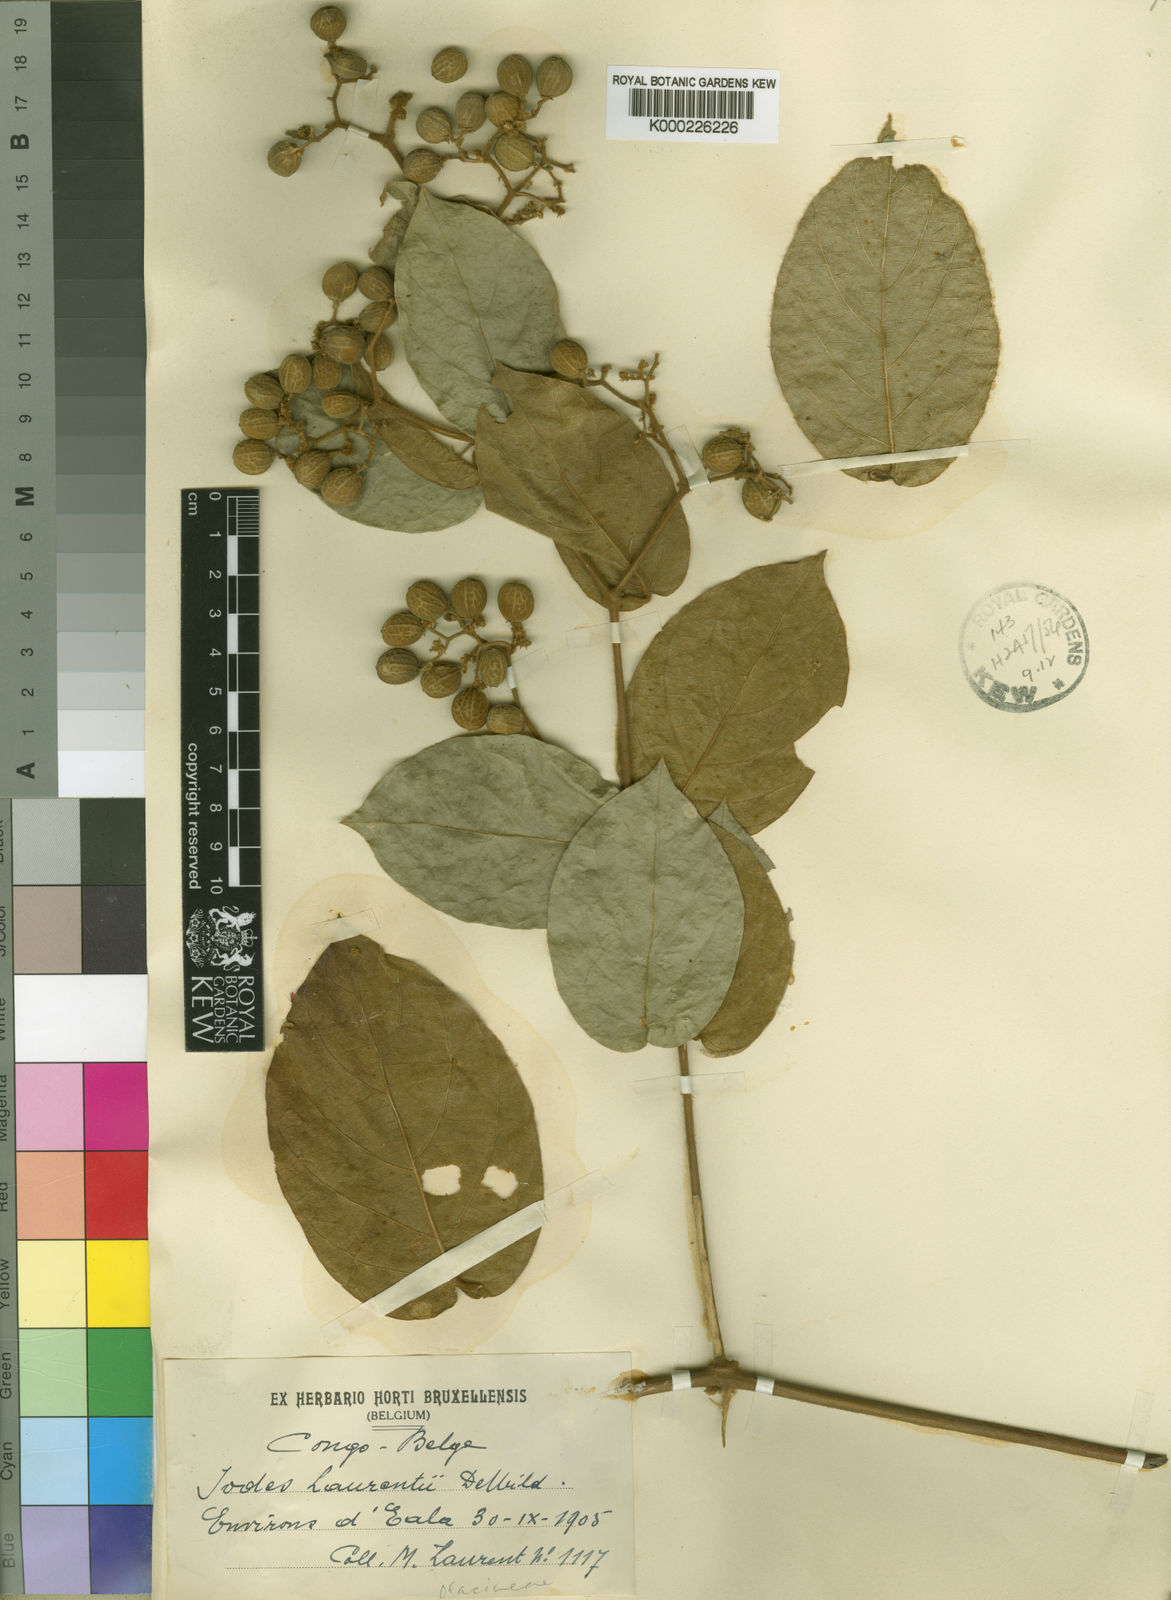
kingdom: Plantae
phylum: Tracheophyta
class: Magnoliopsida
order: Icacinales
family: Icacinaceae
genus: Iodes
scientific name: Iodes klaineana
